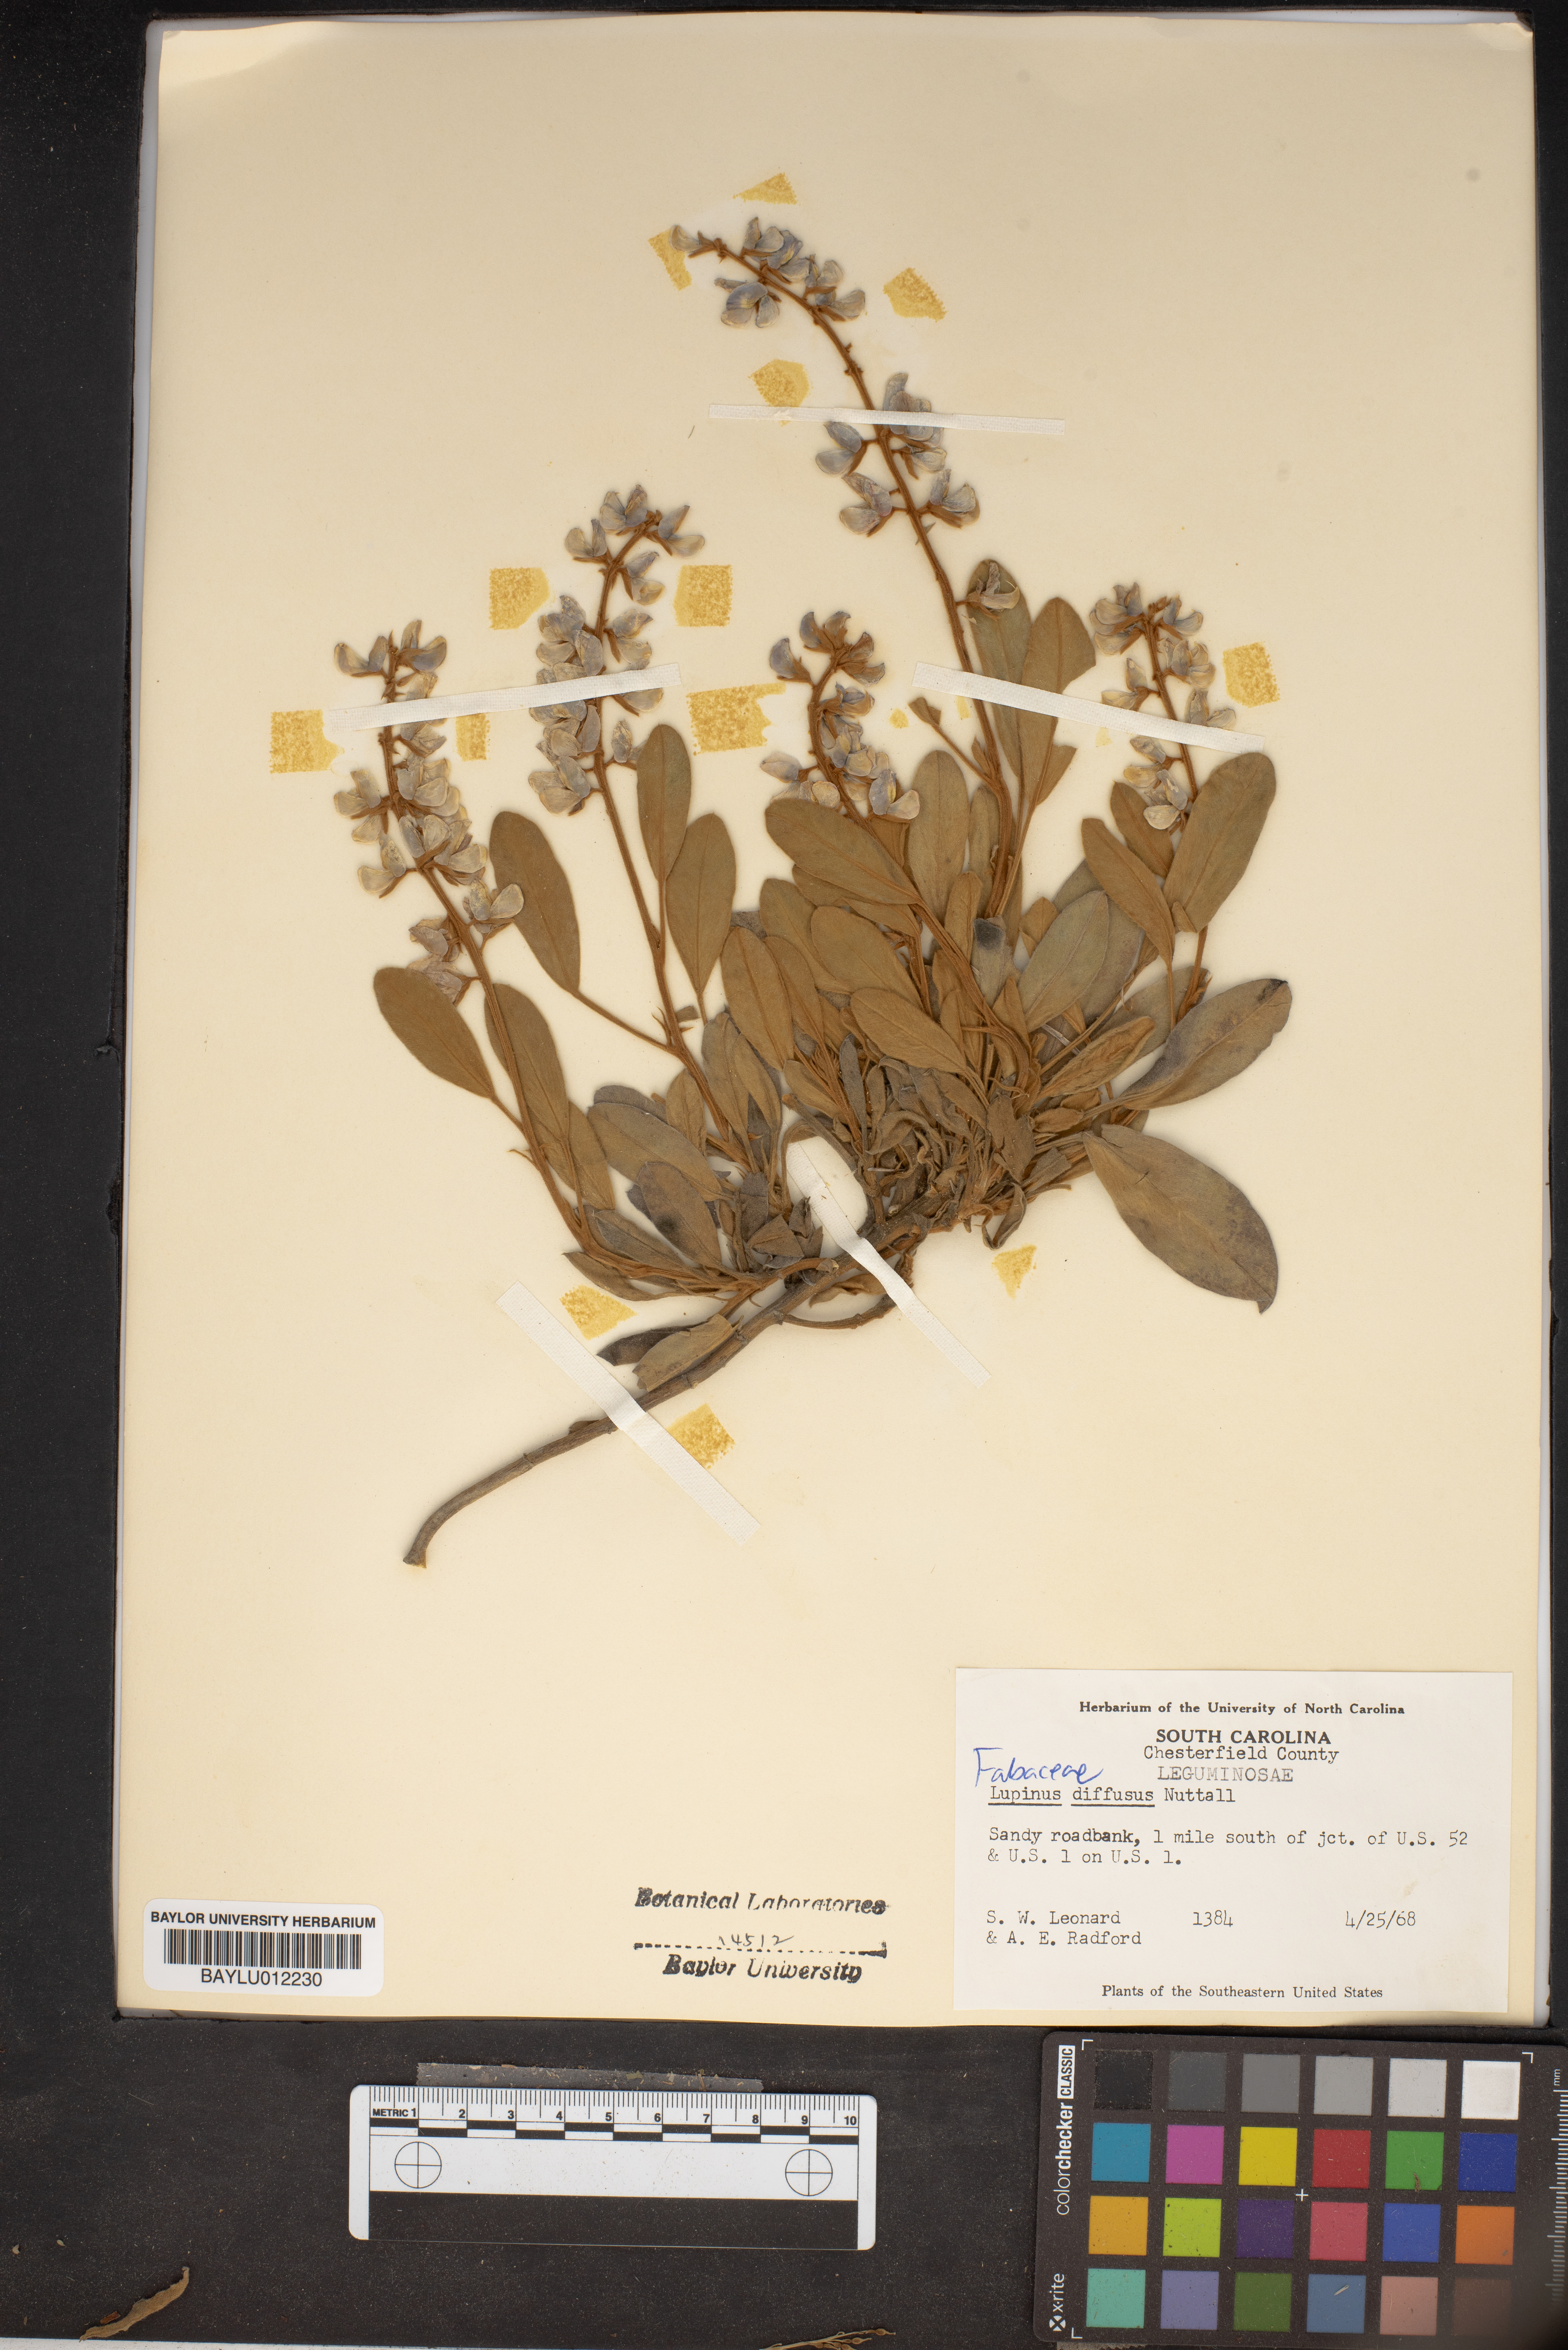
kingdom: Plantae
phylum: Tracheophyta
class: Magnoliopsida
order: Fabales
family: Fabaceae
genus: Lupinus
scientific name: Lupinus diffusus
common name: Oak ridge lupine
